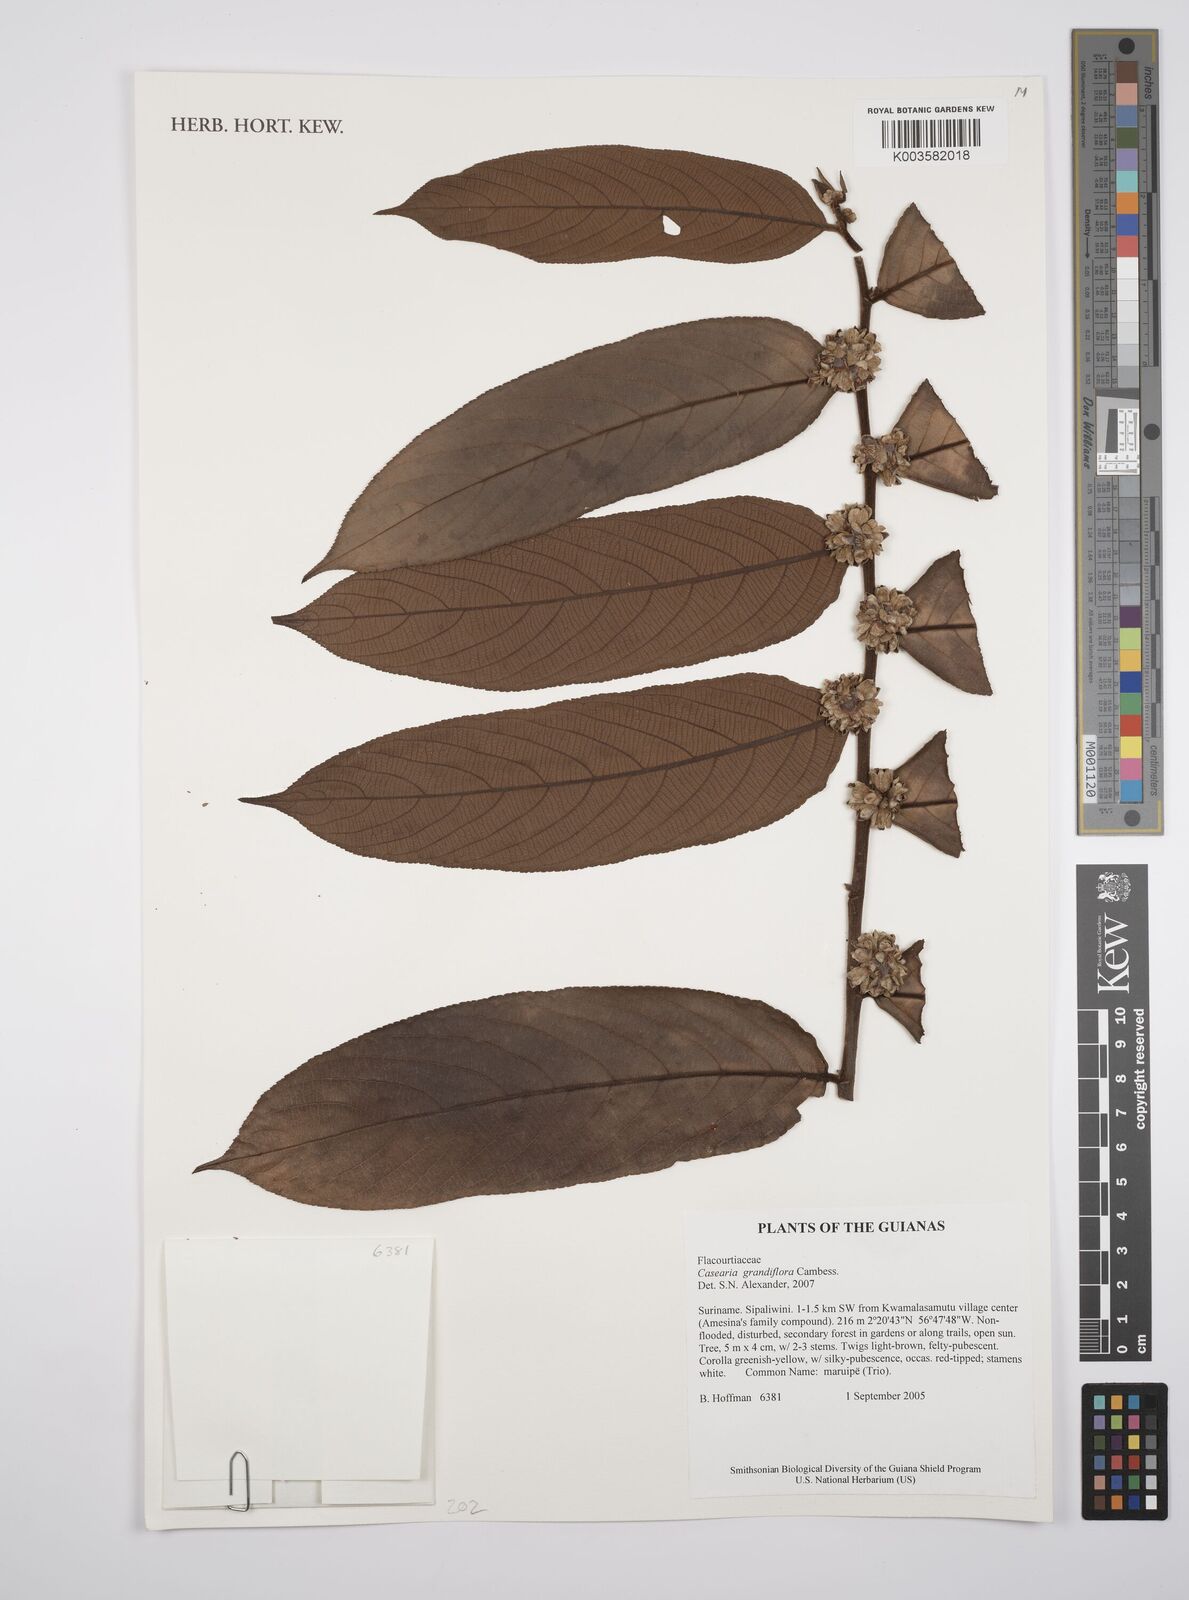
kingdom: Plantae
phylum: Tracheophyta
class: Magnoliopsida
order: Malpighiales
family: Salicaceae
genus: Casearia
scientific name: Casearia grandiflora
